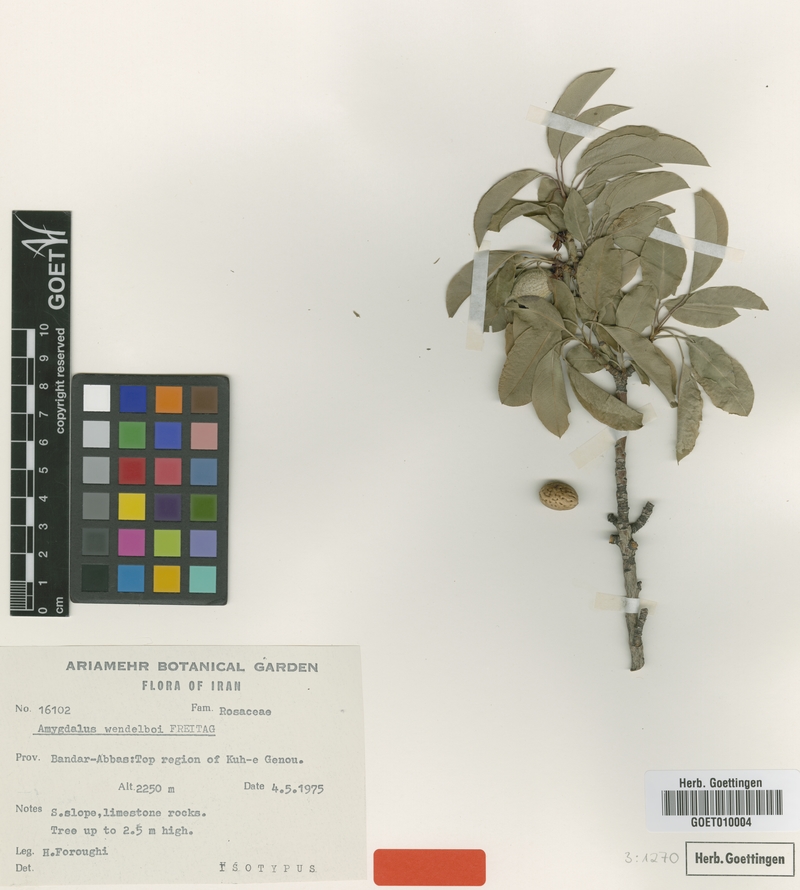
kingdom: Plantae
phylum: Tracheophyta
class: Magnoliopsida
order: Rosales
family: Rosaceae
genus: Prunus
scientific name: Prunus wendelboi
